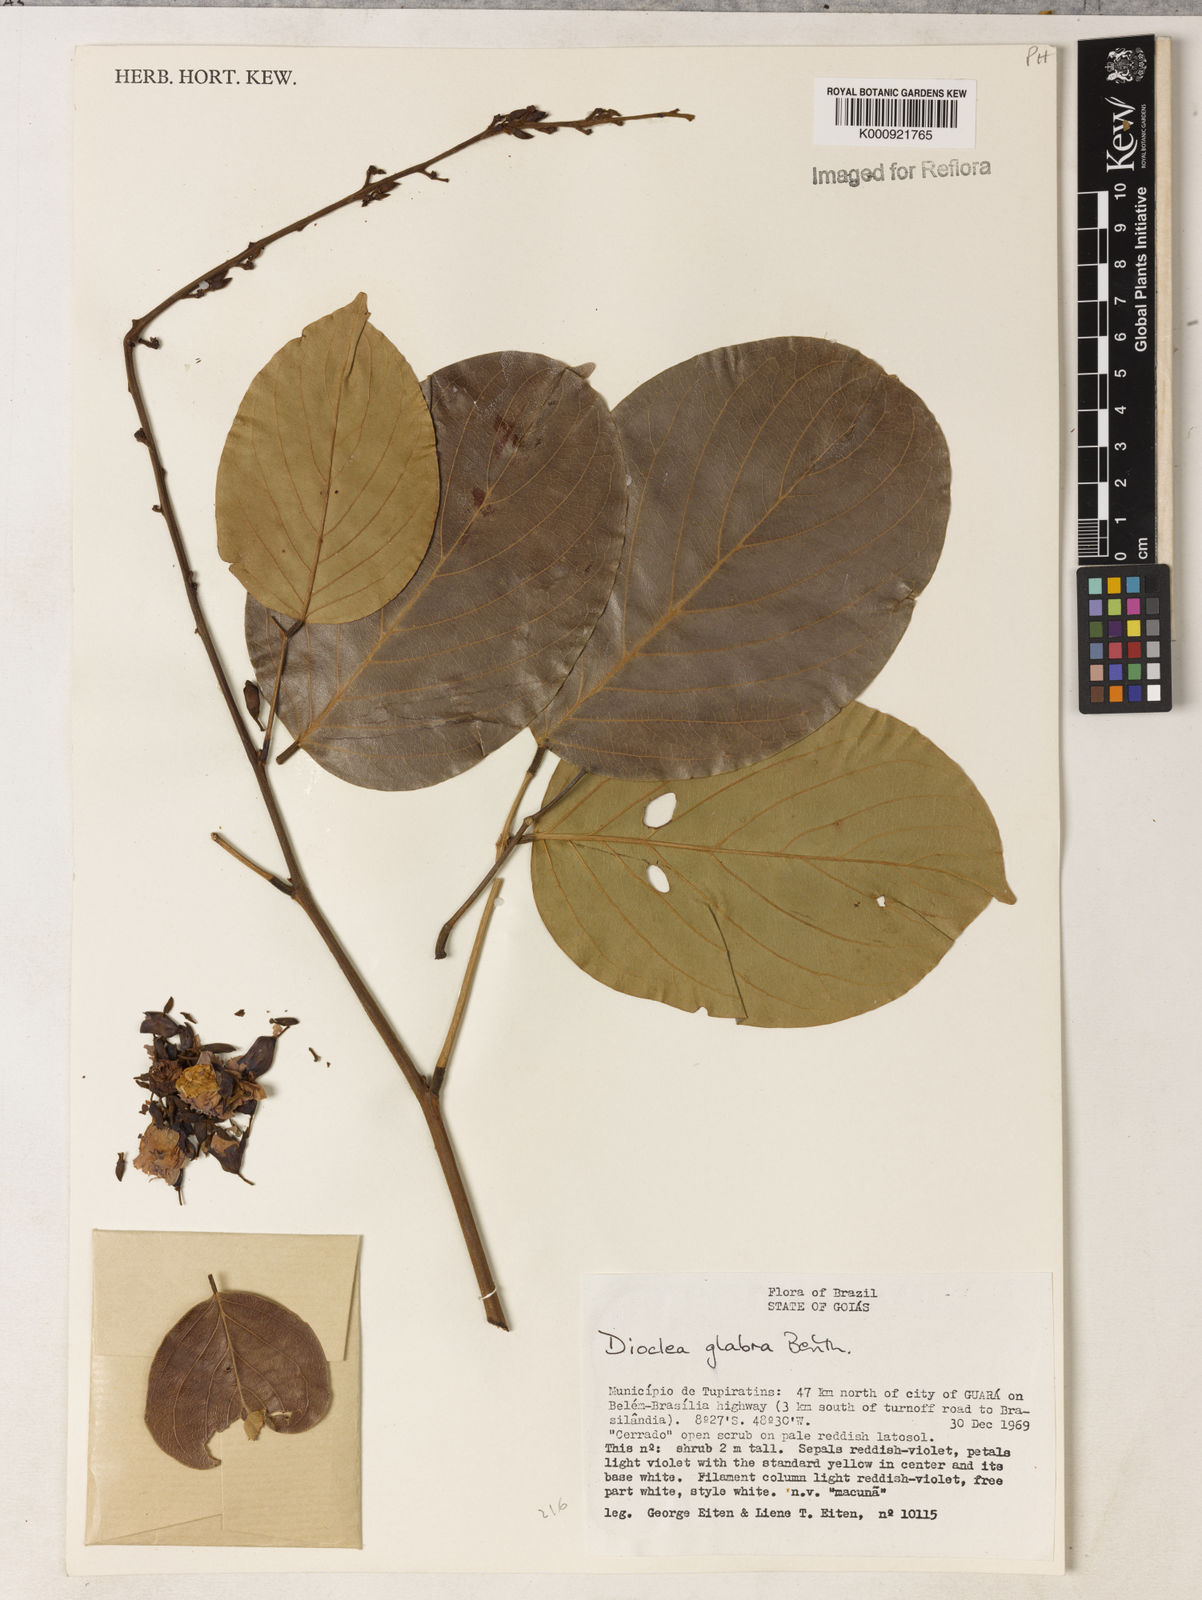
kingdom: Plantae
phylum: Tracheophyta
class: Magnoliopsida
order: Fabales
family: Fabaceae
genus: Macropsychanthus
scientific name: Macropsychanthus glaber
